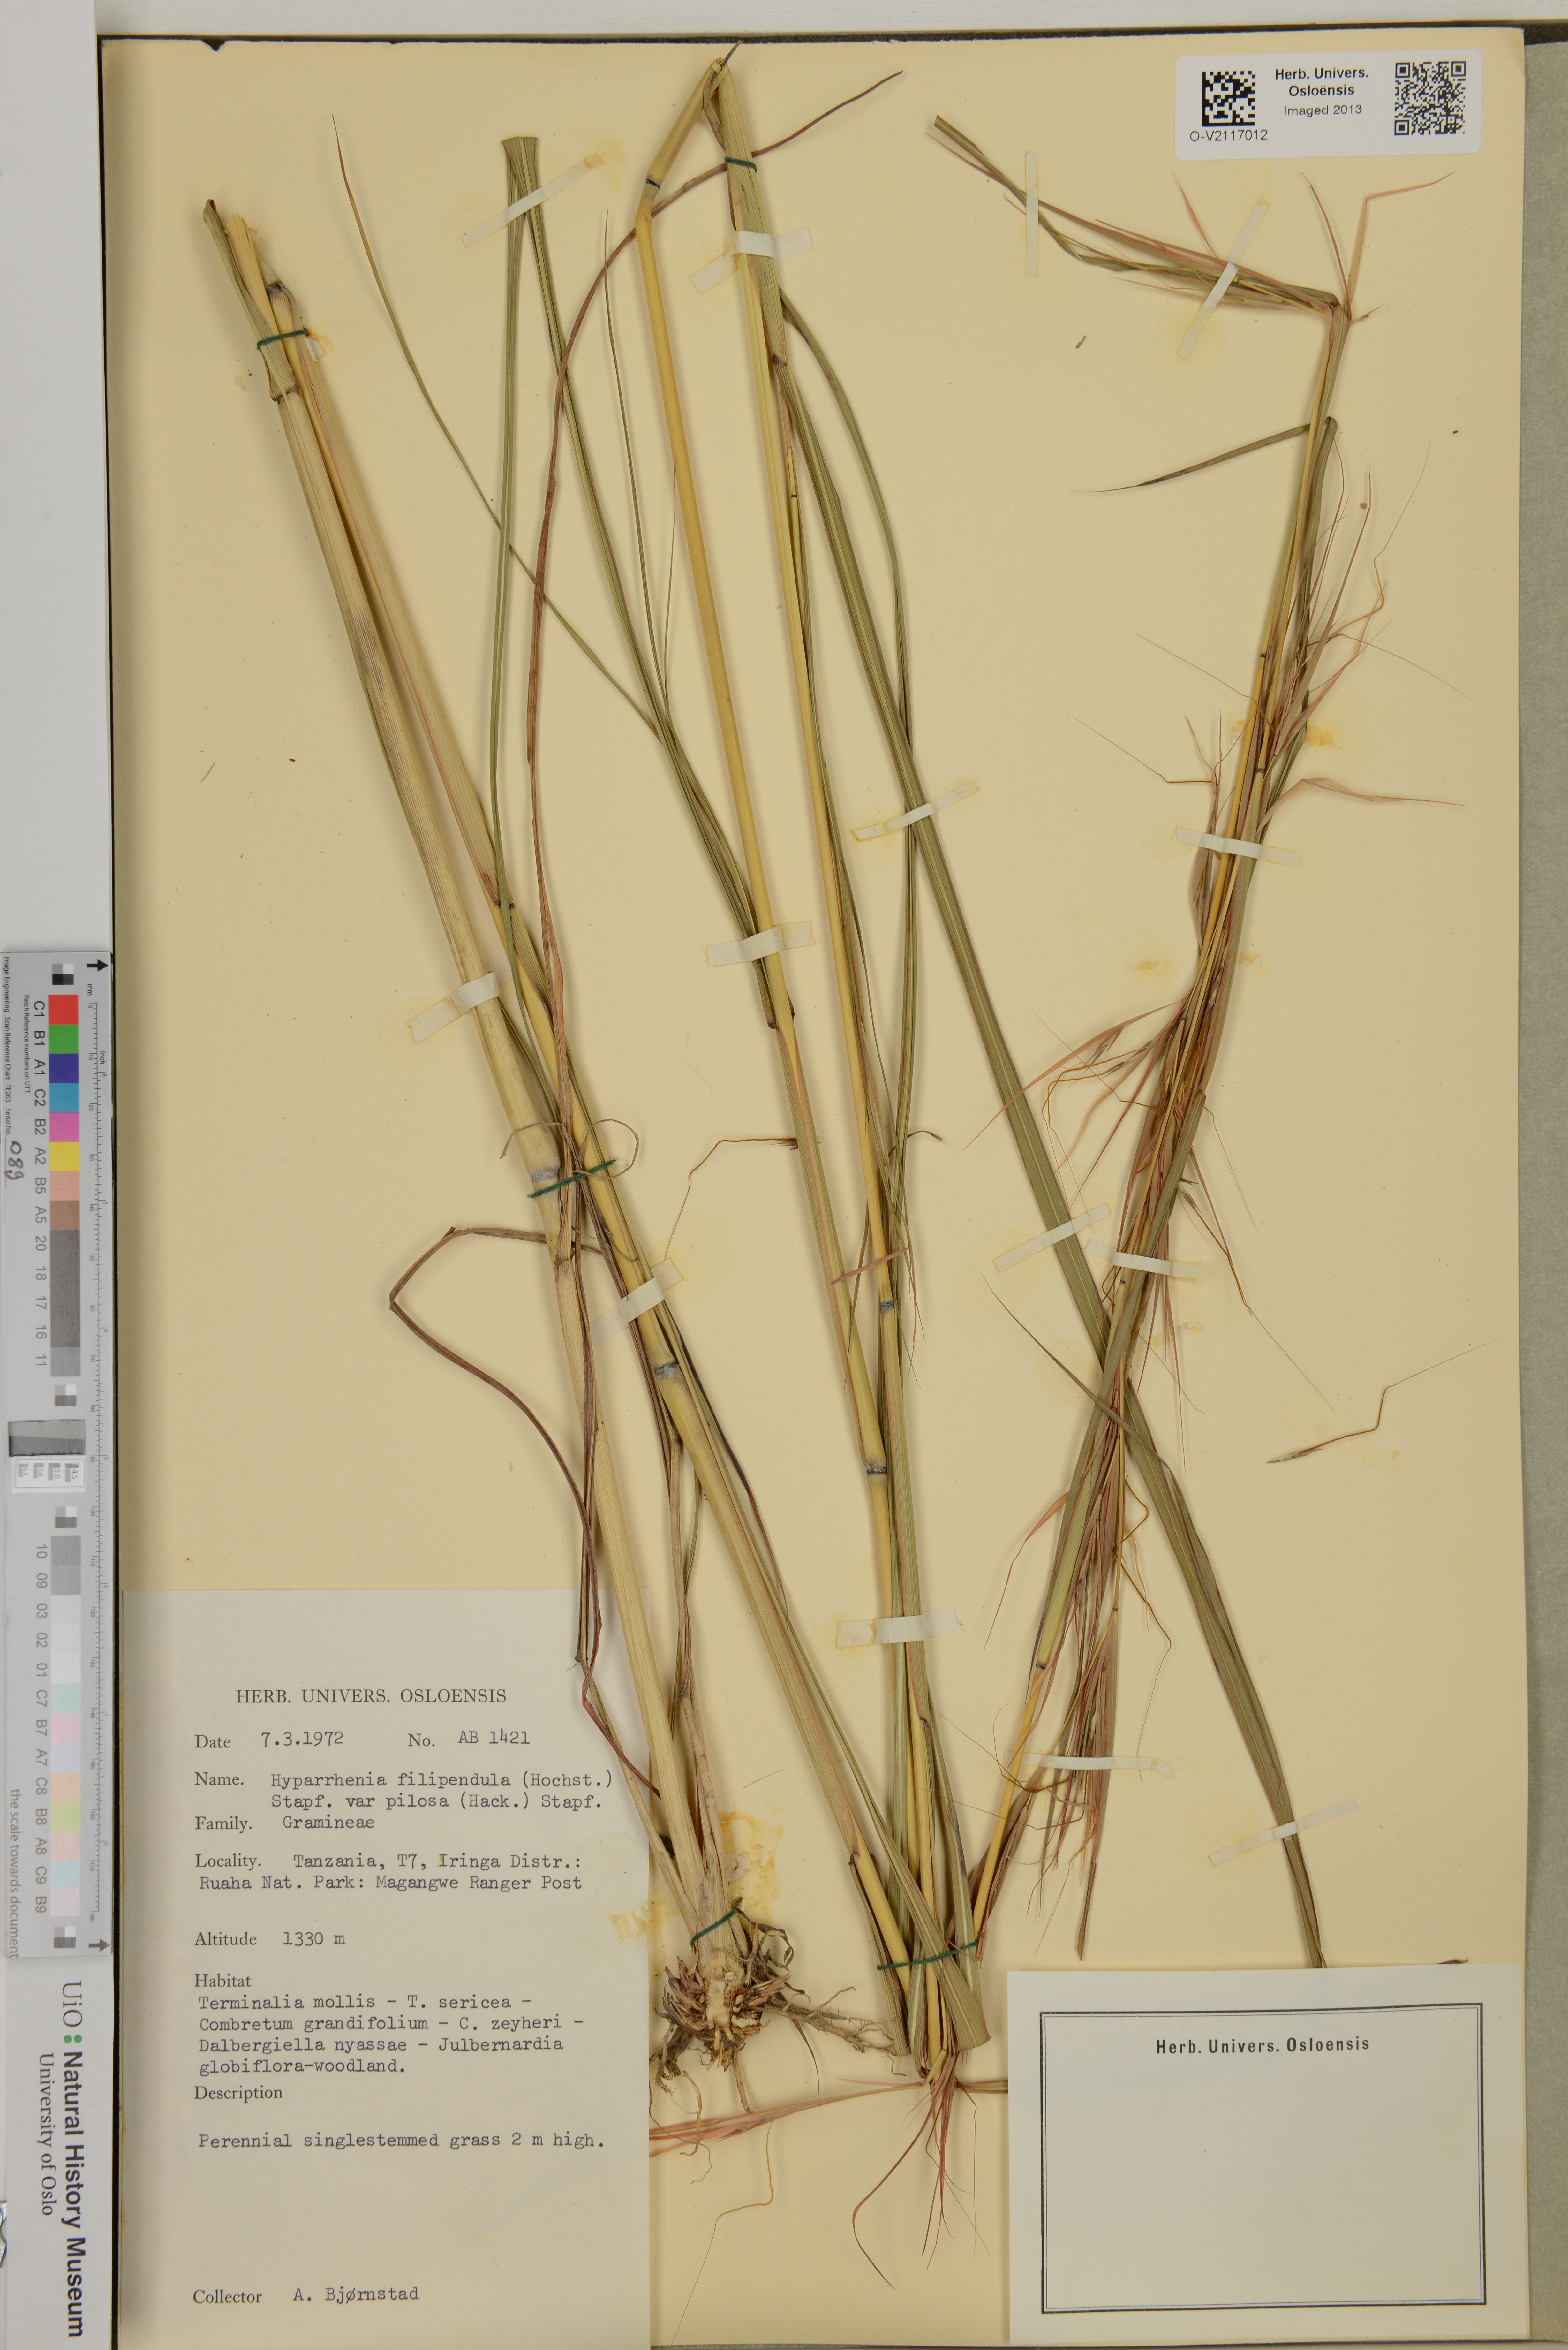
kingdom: Plantae
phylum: Tracheophyta
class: Liliopsida
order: Poales
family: Poaceae
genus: Hyparrhenia
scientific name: Hyparrhenia filipendula
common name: Tambookie grass
